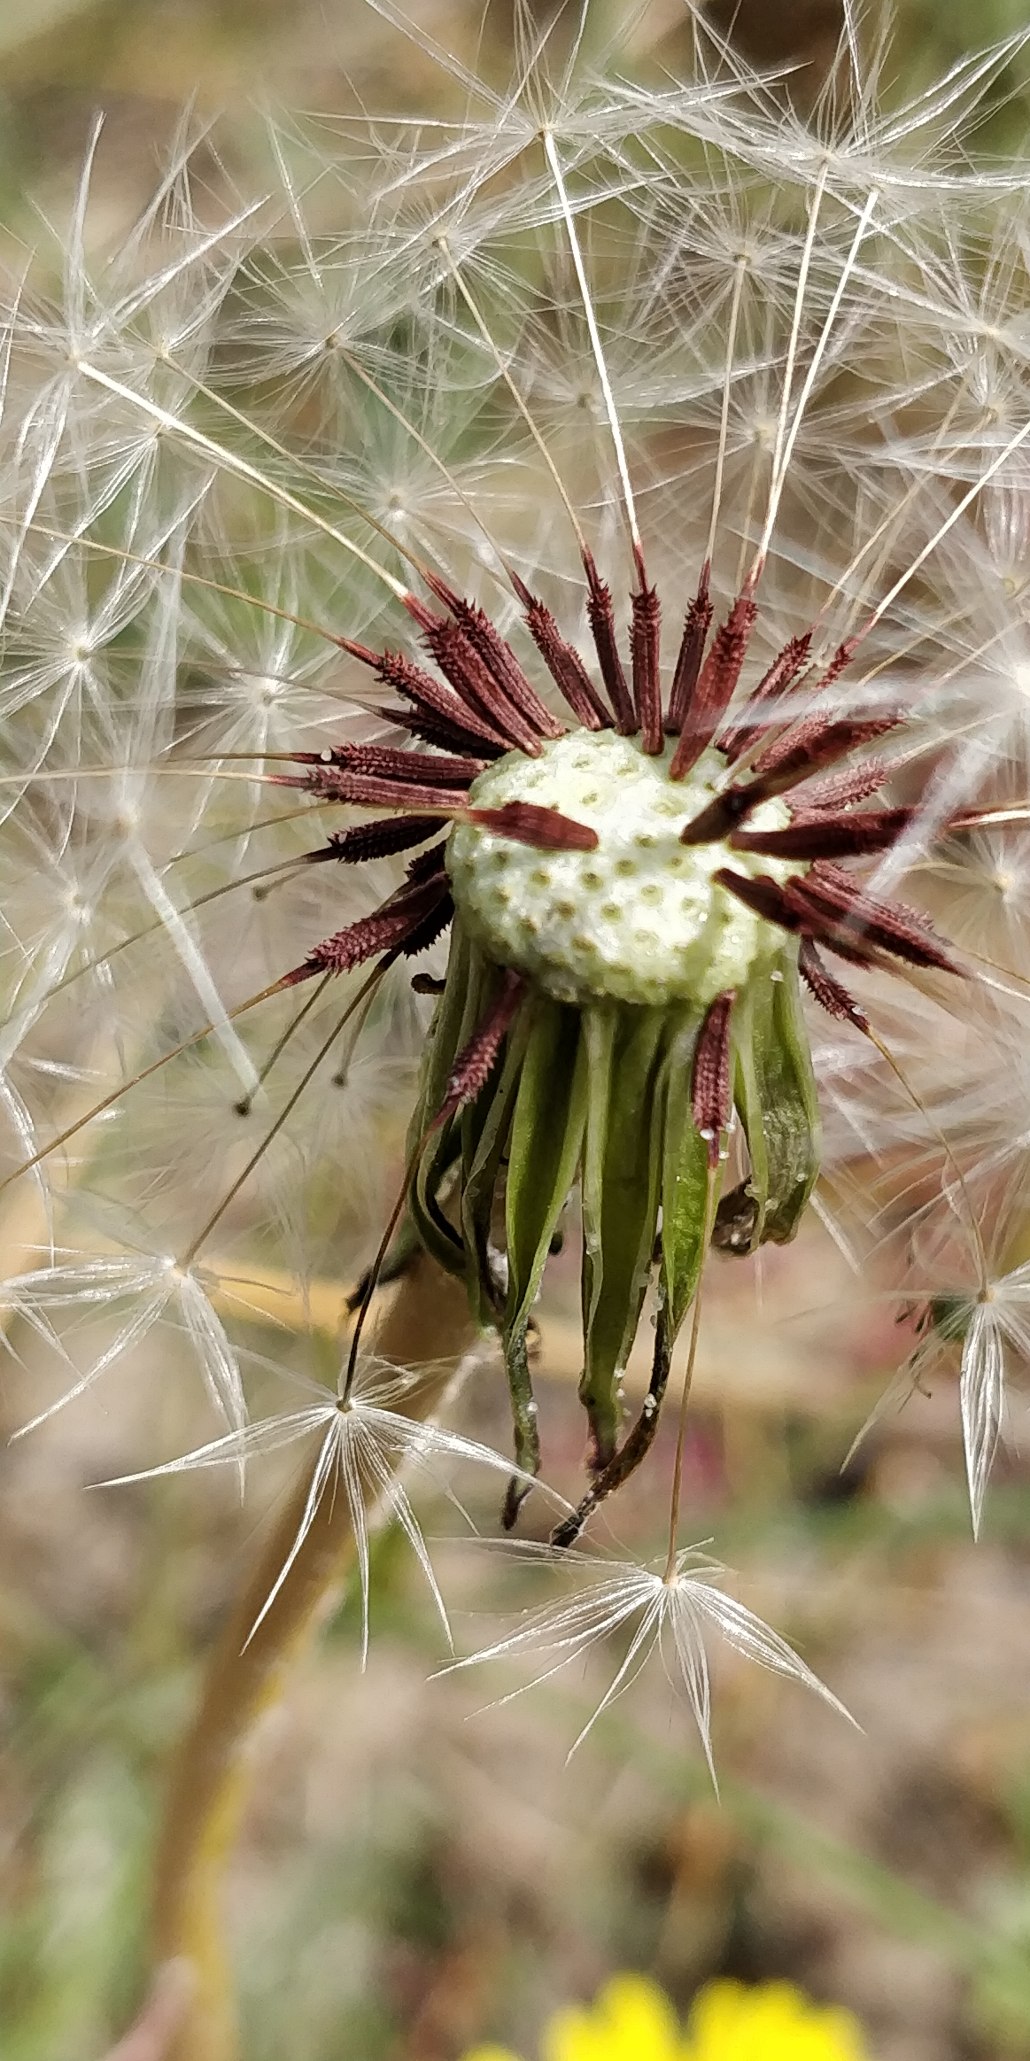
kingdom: Plantae
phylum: Tracheophyta
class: Magnoliopsida
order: Asterales
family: Asteraceae
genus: Taraxacum
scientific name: Taraxacum
